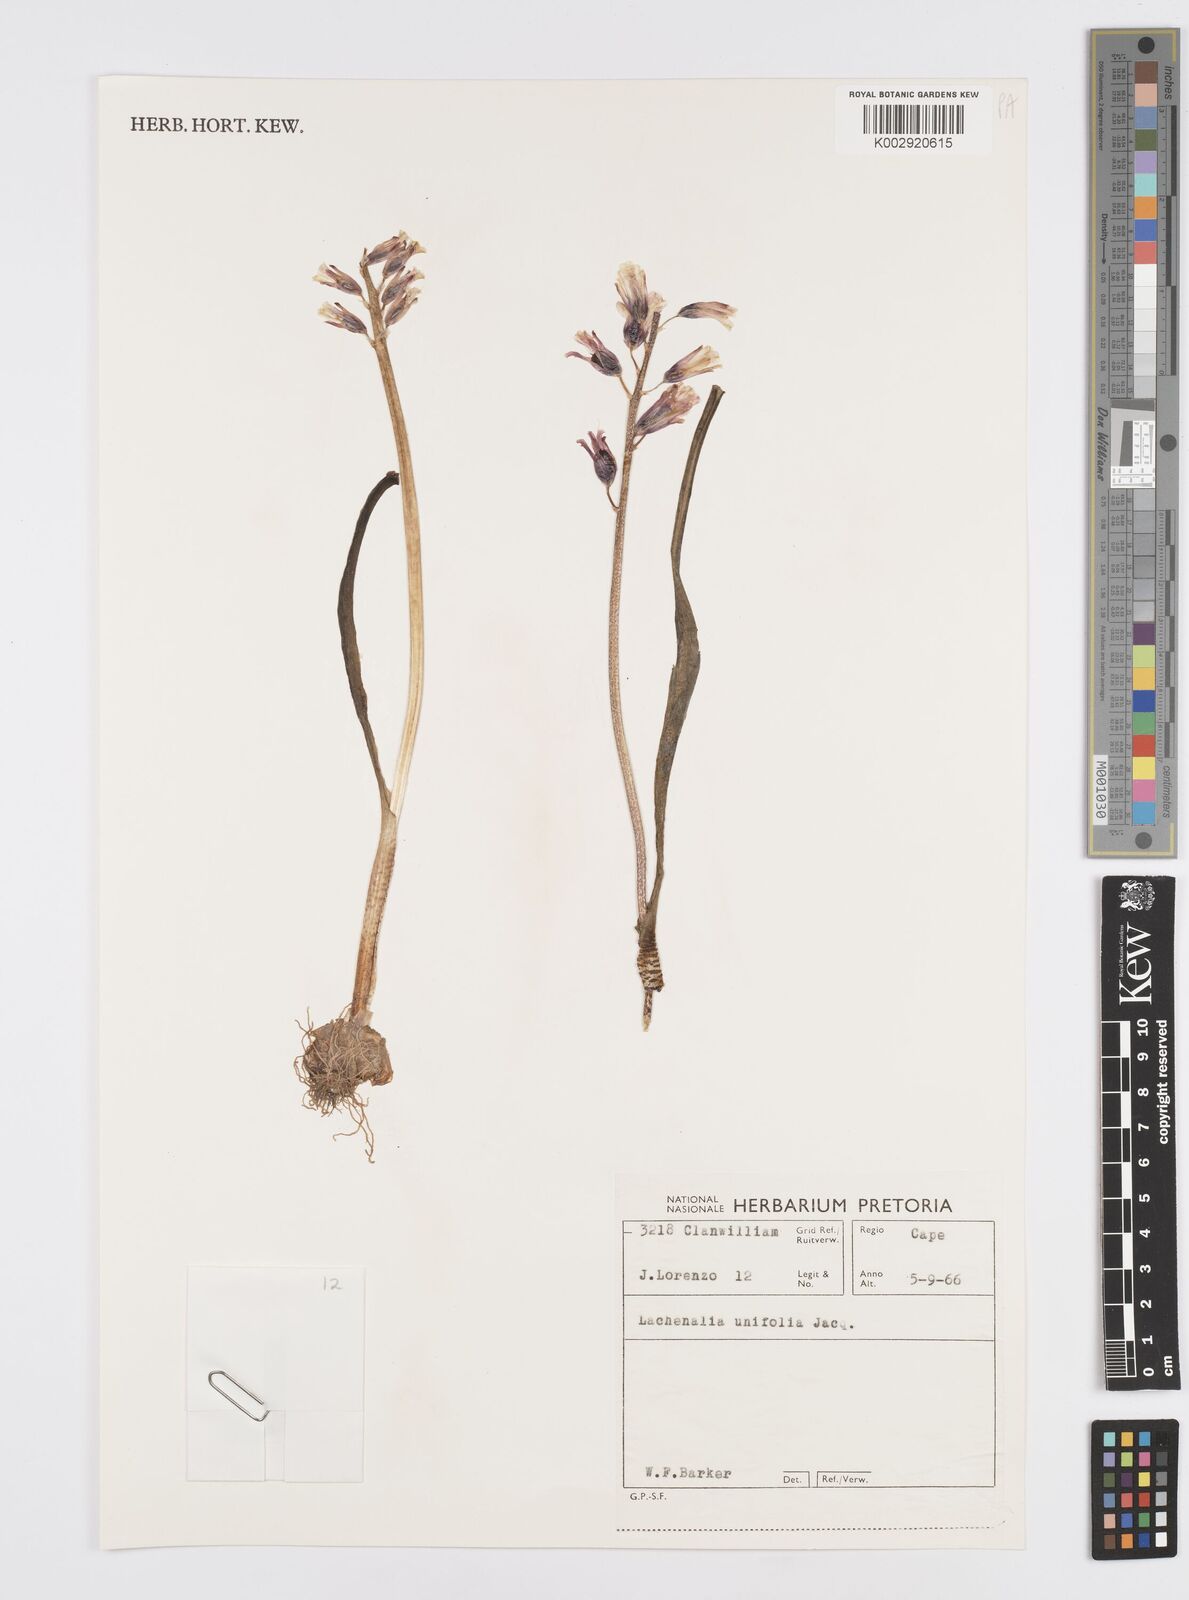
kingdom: Plantae
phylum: Tracheophyta
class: Liliopsida
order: Asparagales
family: Asparagaceae
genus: Lachenalia
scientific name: Lachenalia unifolia
